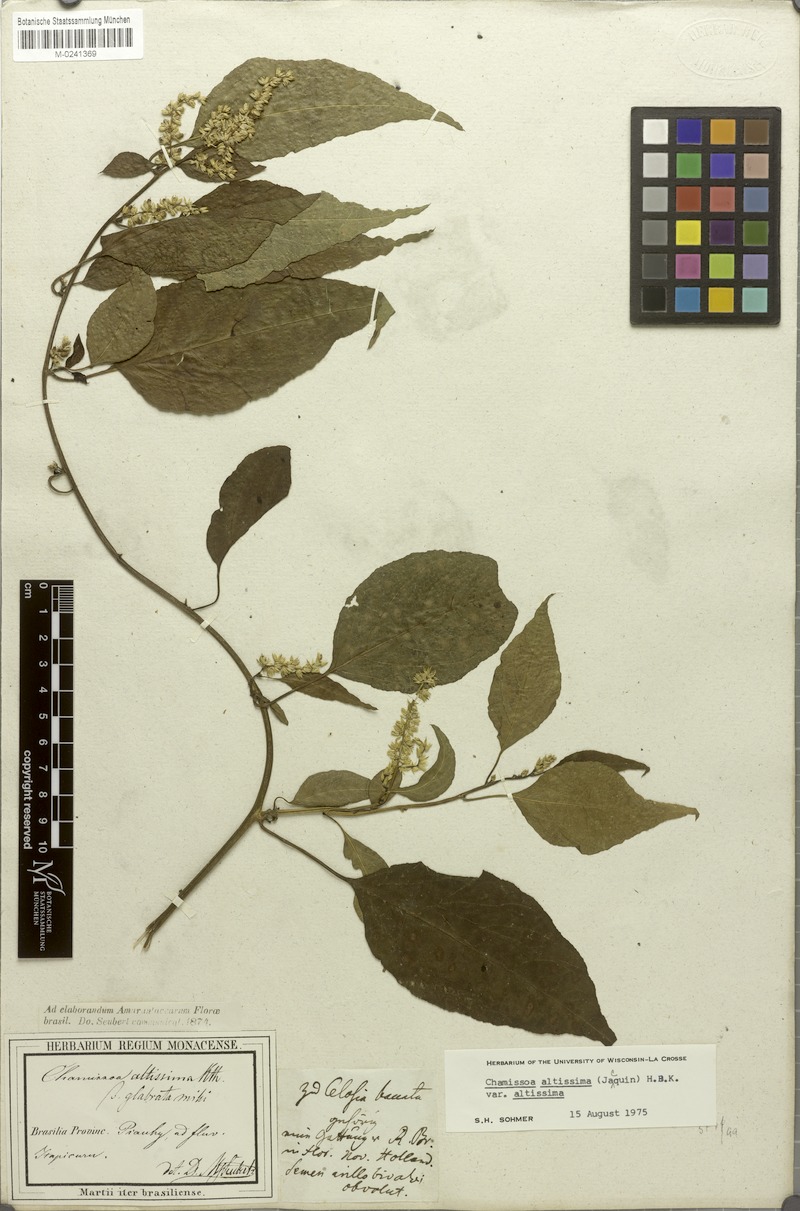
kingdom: Plantae
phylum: Tracheophyta
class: Magnoliopsida
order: Caryophyllales
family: Amaranthaceae
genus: Chamissoa
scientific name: Chamissoa altissima
